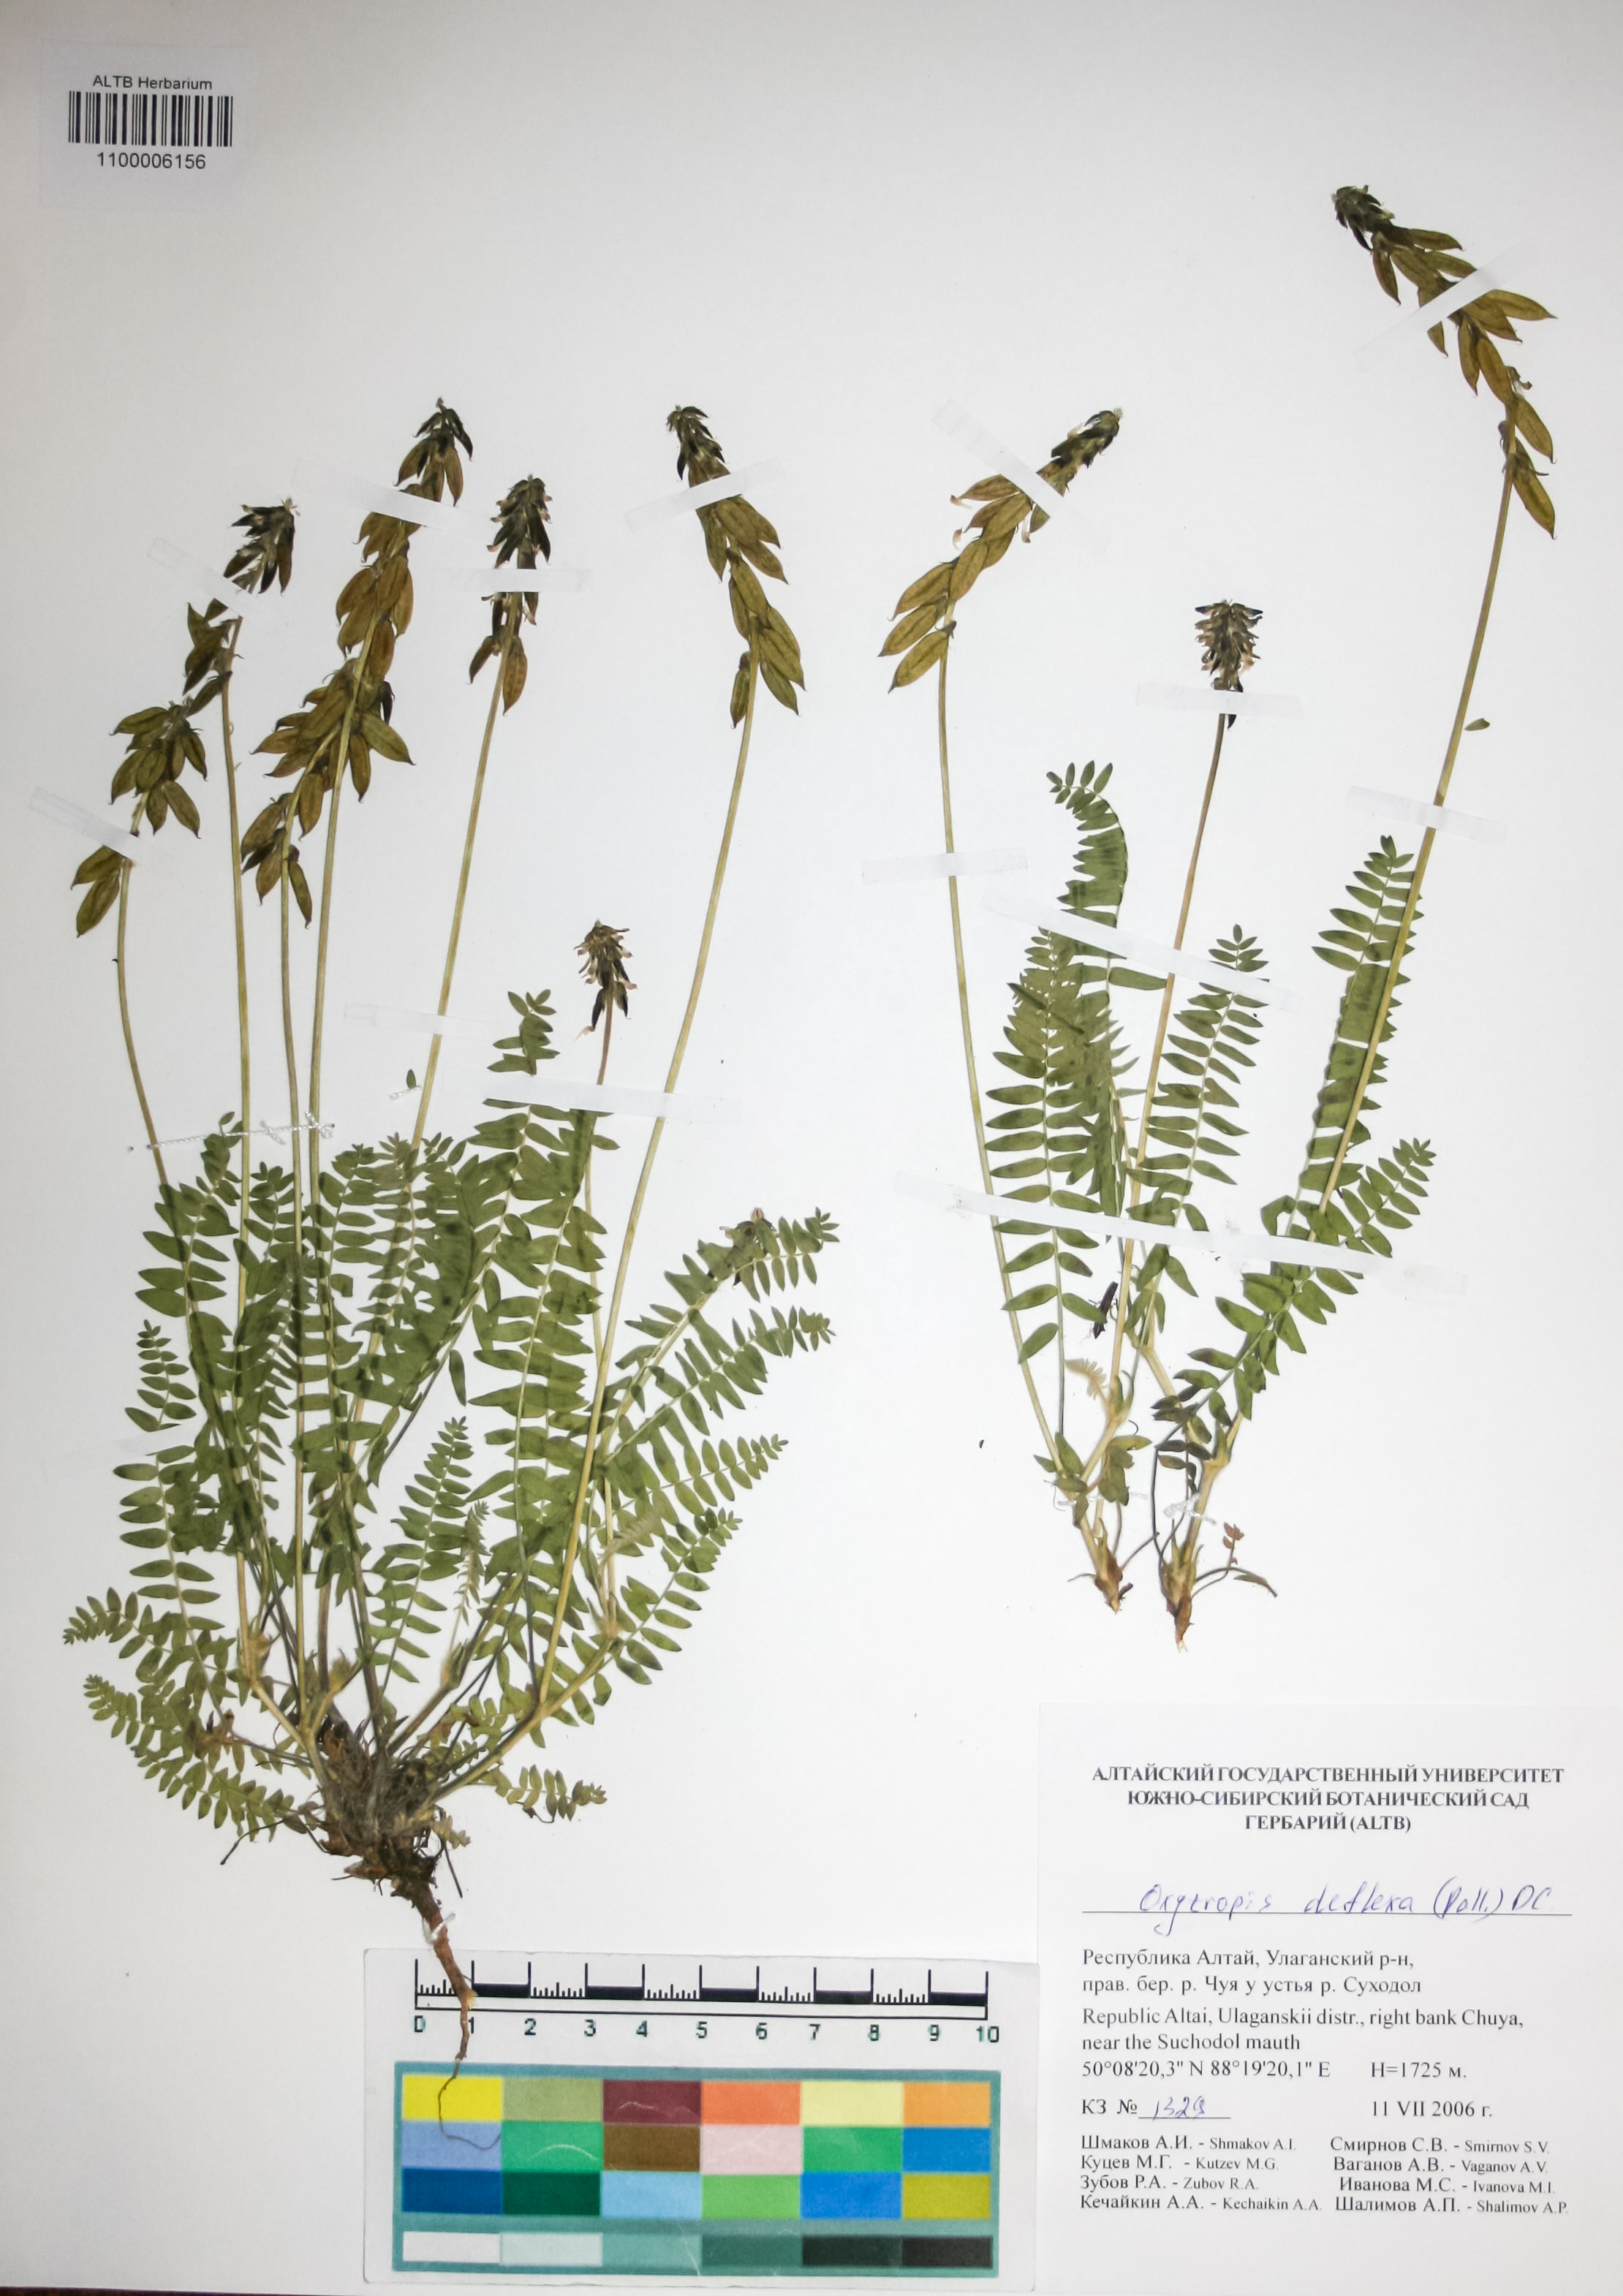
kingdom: Plantae
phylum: Tracheophyta
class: Magnoliopsida
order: Fabales
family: Fabaceae
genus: Oxytropis
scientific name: Oxytropis deflexa
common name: Stemmed oxytrope
